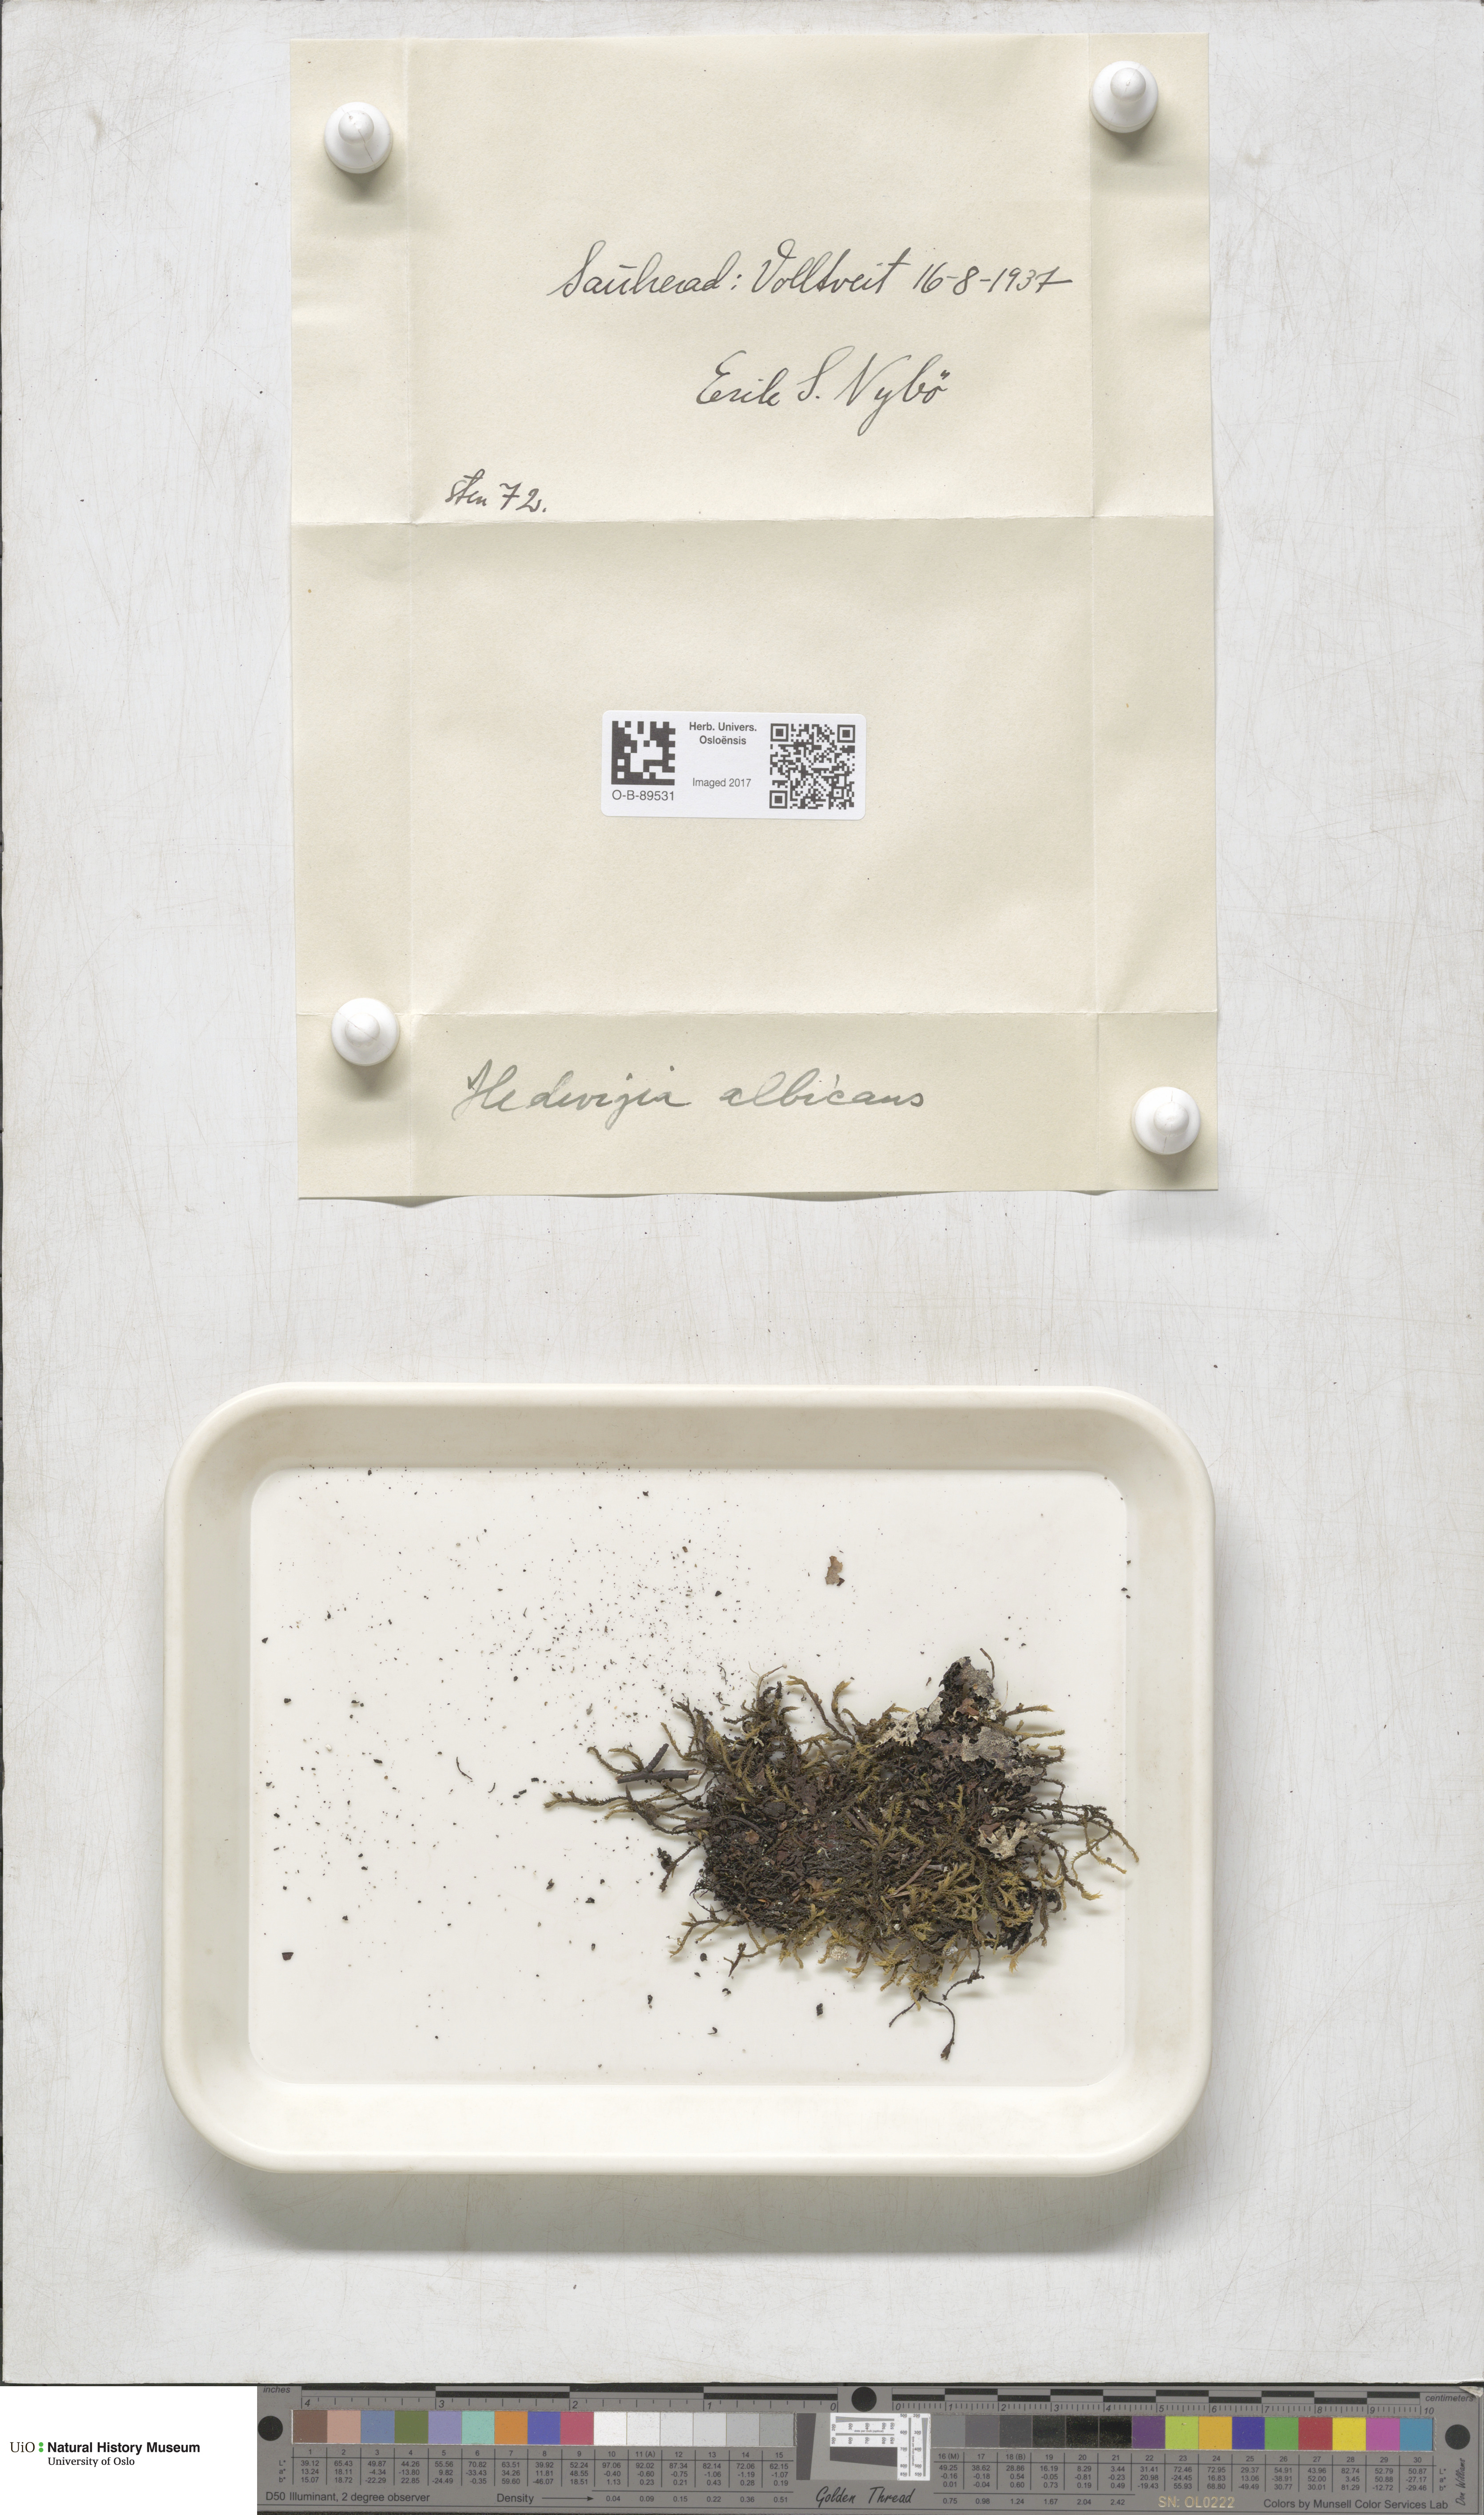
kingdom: Plantae
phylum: Bryophyta
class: Bryopsida
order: Hedwigiales
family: Hedwigiaceae
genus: Hedwigia
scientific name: Hedwigia ciliata
